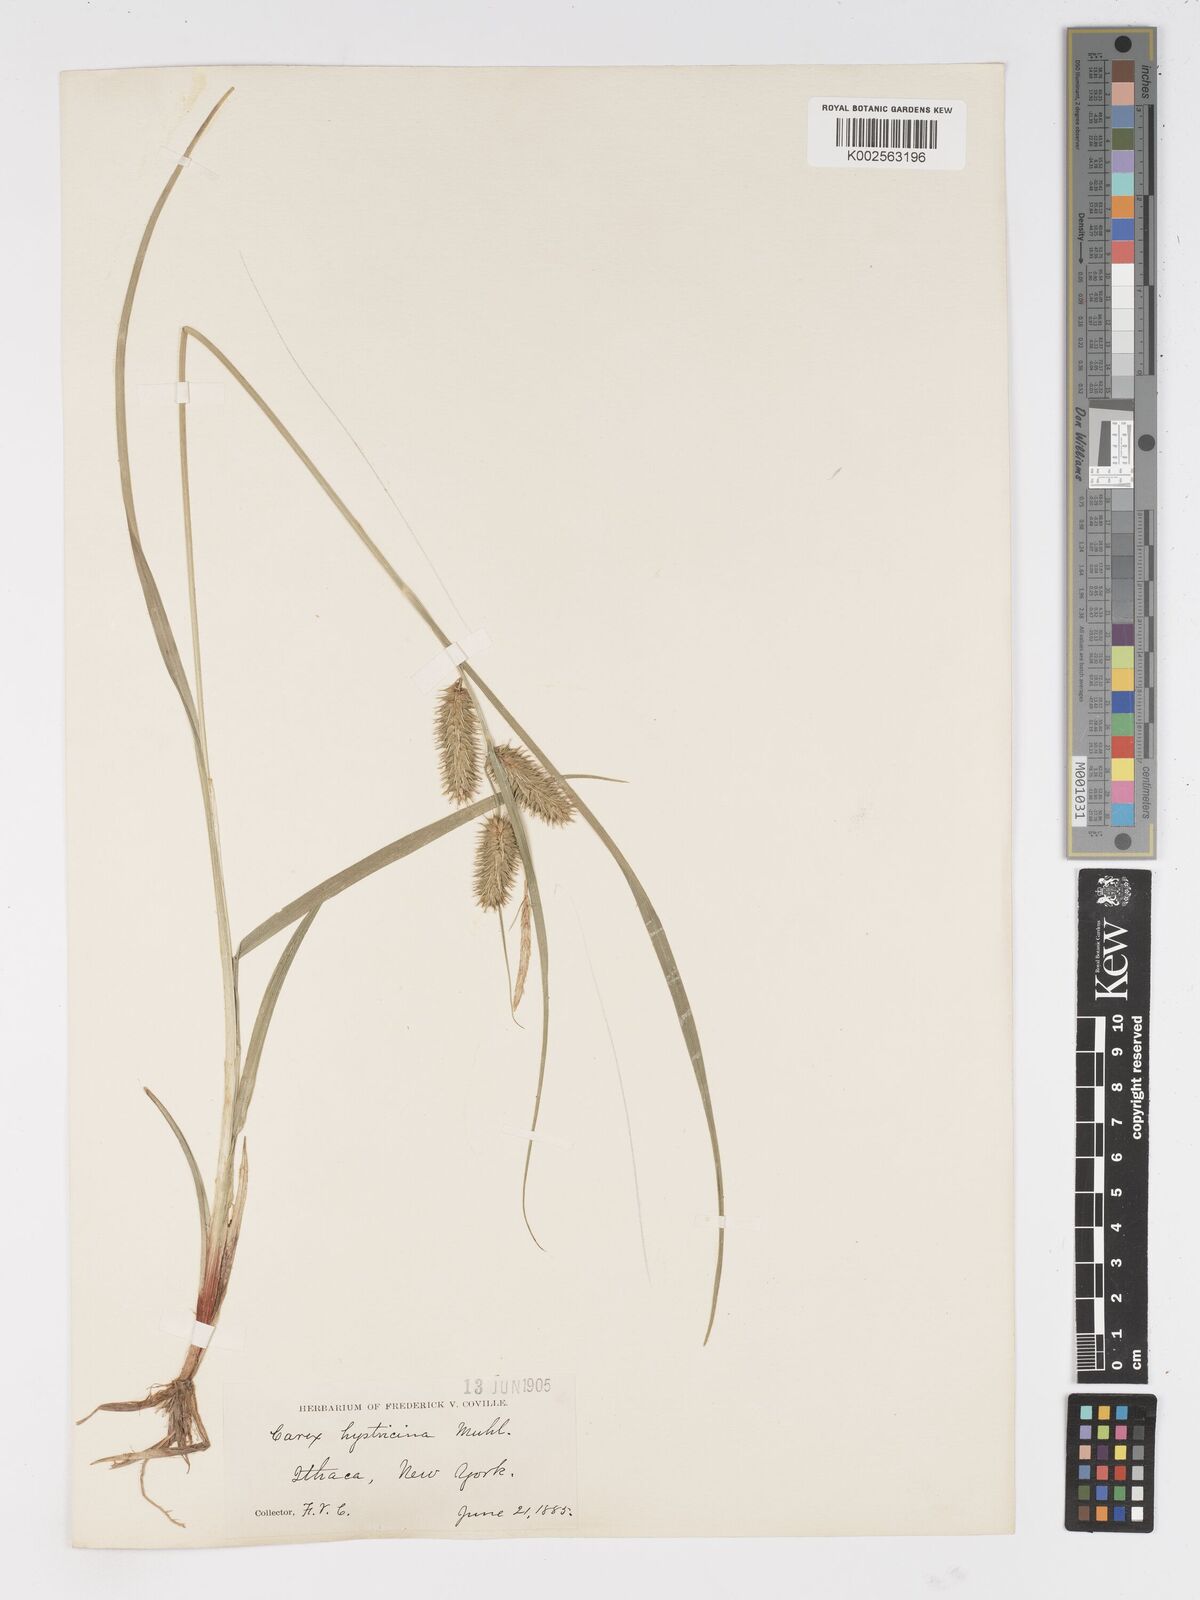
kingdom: Plantae
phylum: Tracheophyta
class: Liliopsida
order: Poales
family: Cyperaceae
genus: Carex
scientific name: Carex hystericina
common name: Bottlebrush sedge
